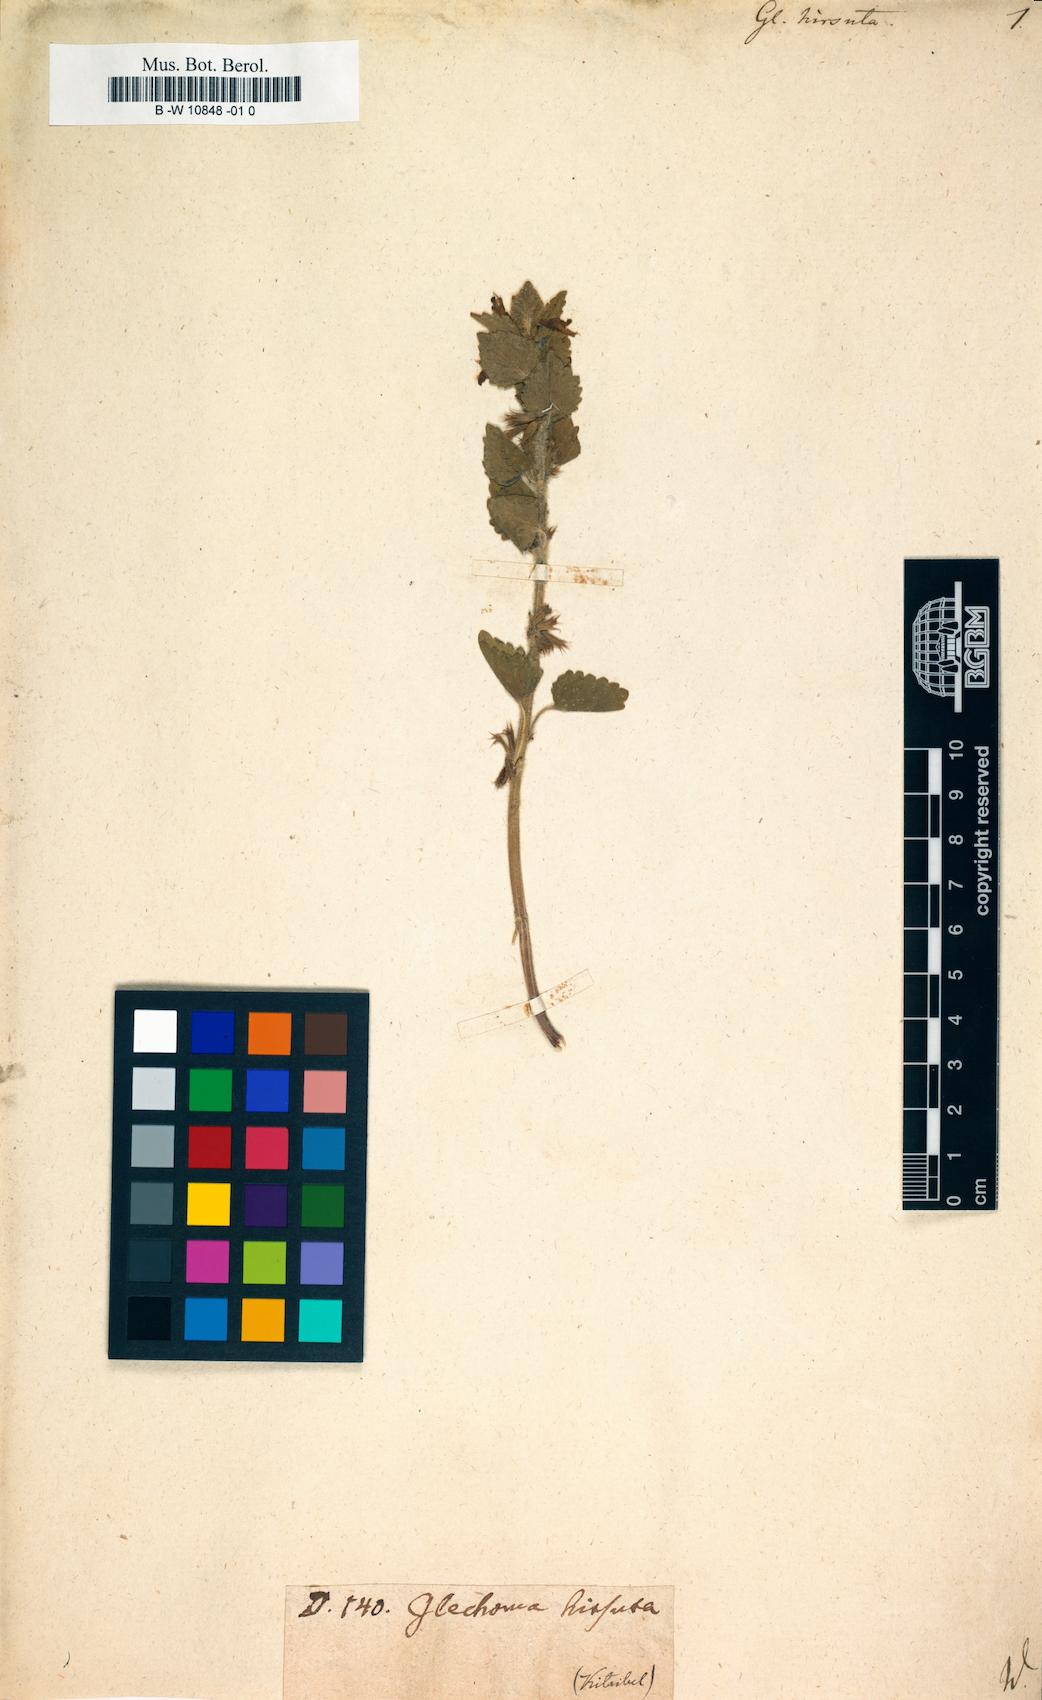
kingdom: Plantae
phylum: Tracheophyta
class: Magnoliopsida
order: Lamiales
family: Lamiaceae
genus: Glechoma
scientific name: Glechoma hirsuta
